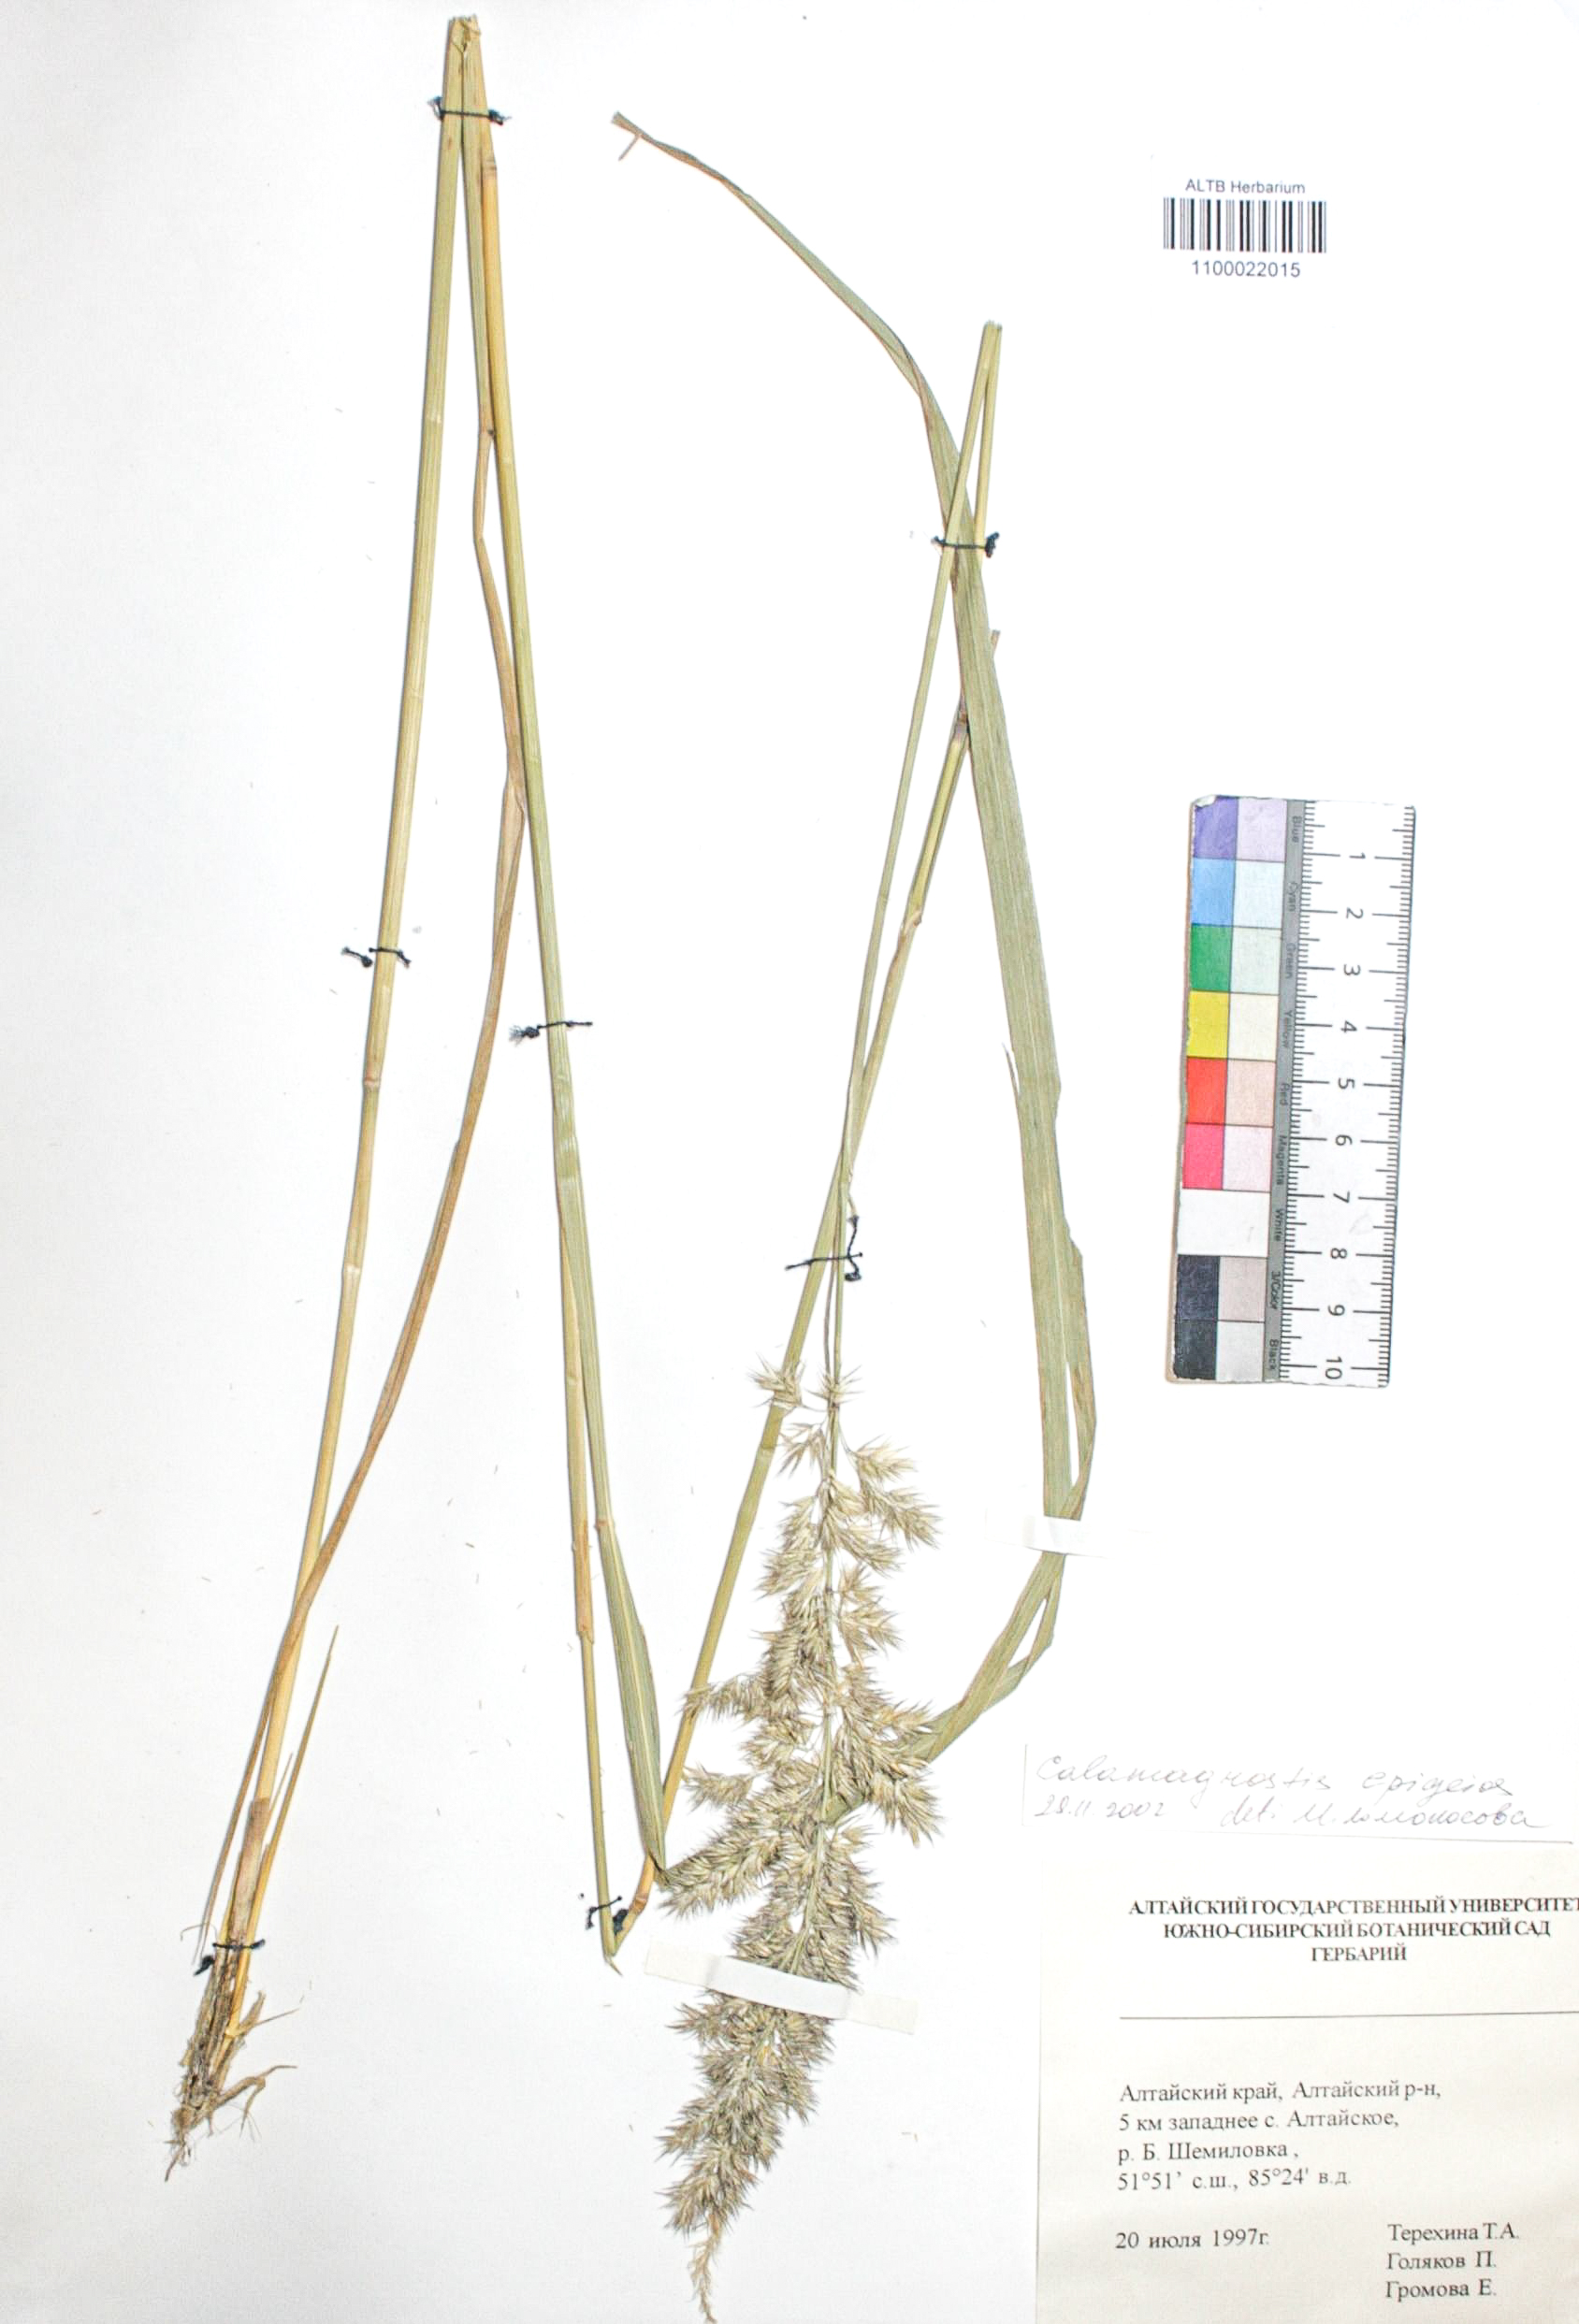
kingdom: Plantae
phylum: Tracheophyta
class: Liliopsida
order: Poales
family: Poaceae
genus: Calamagrostis
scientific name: Calamagrostis epigejos
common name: Wood small-reed
